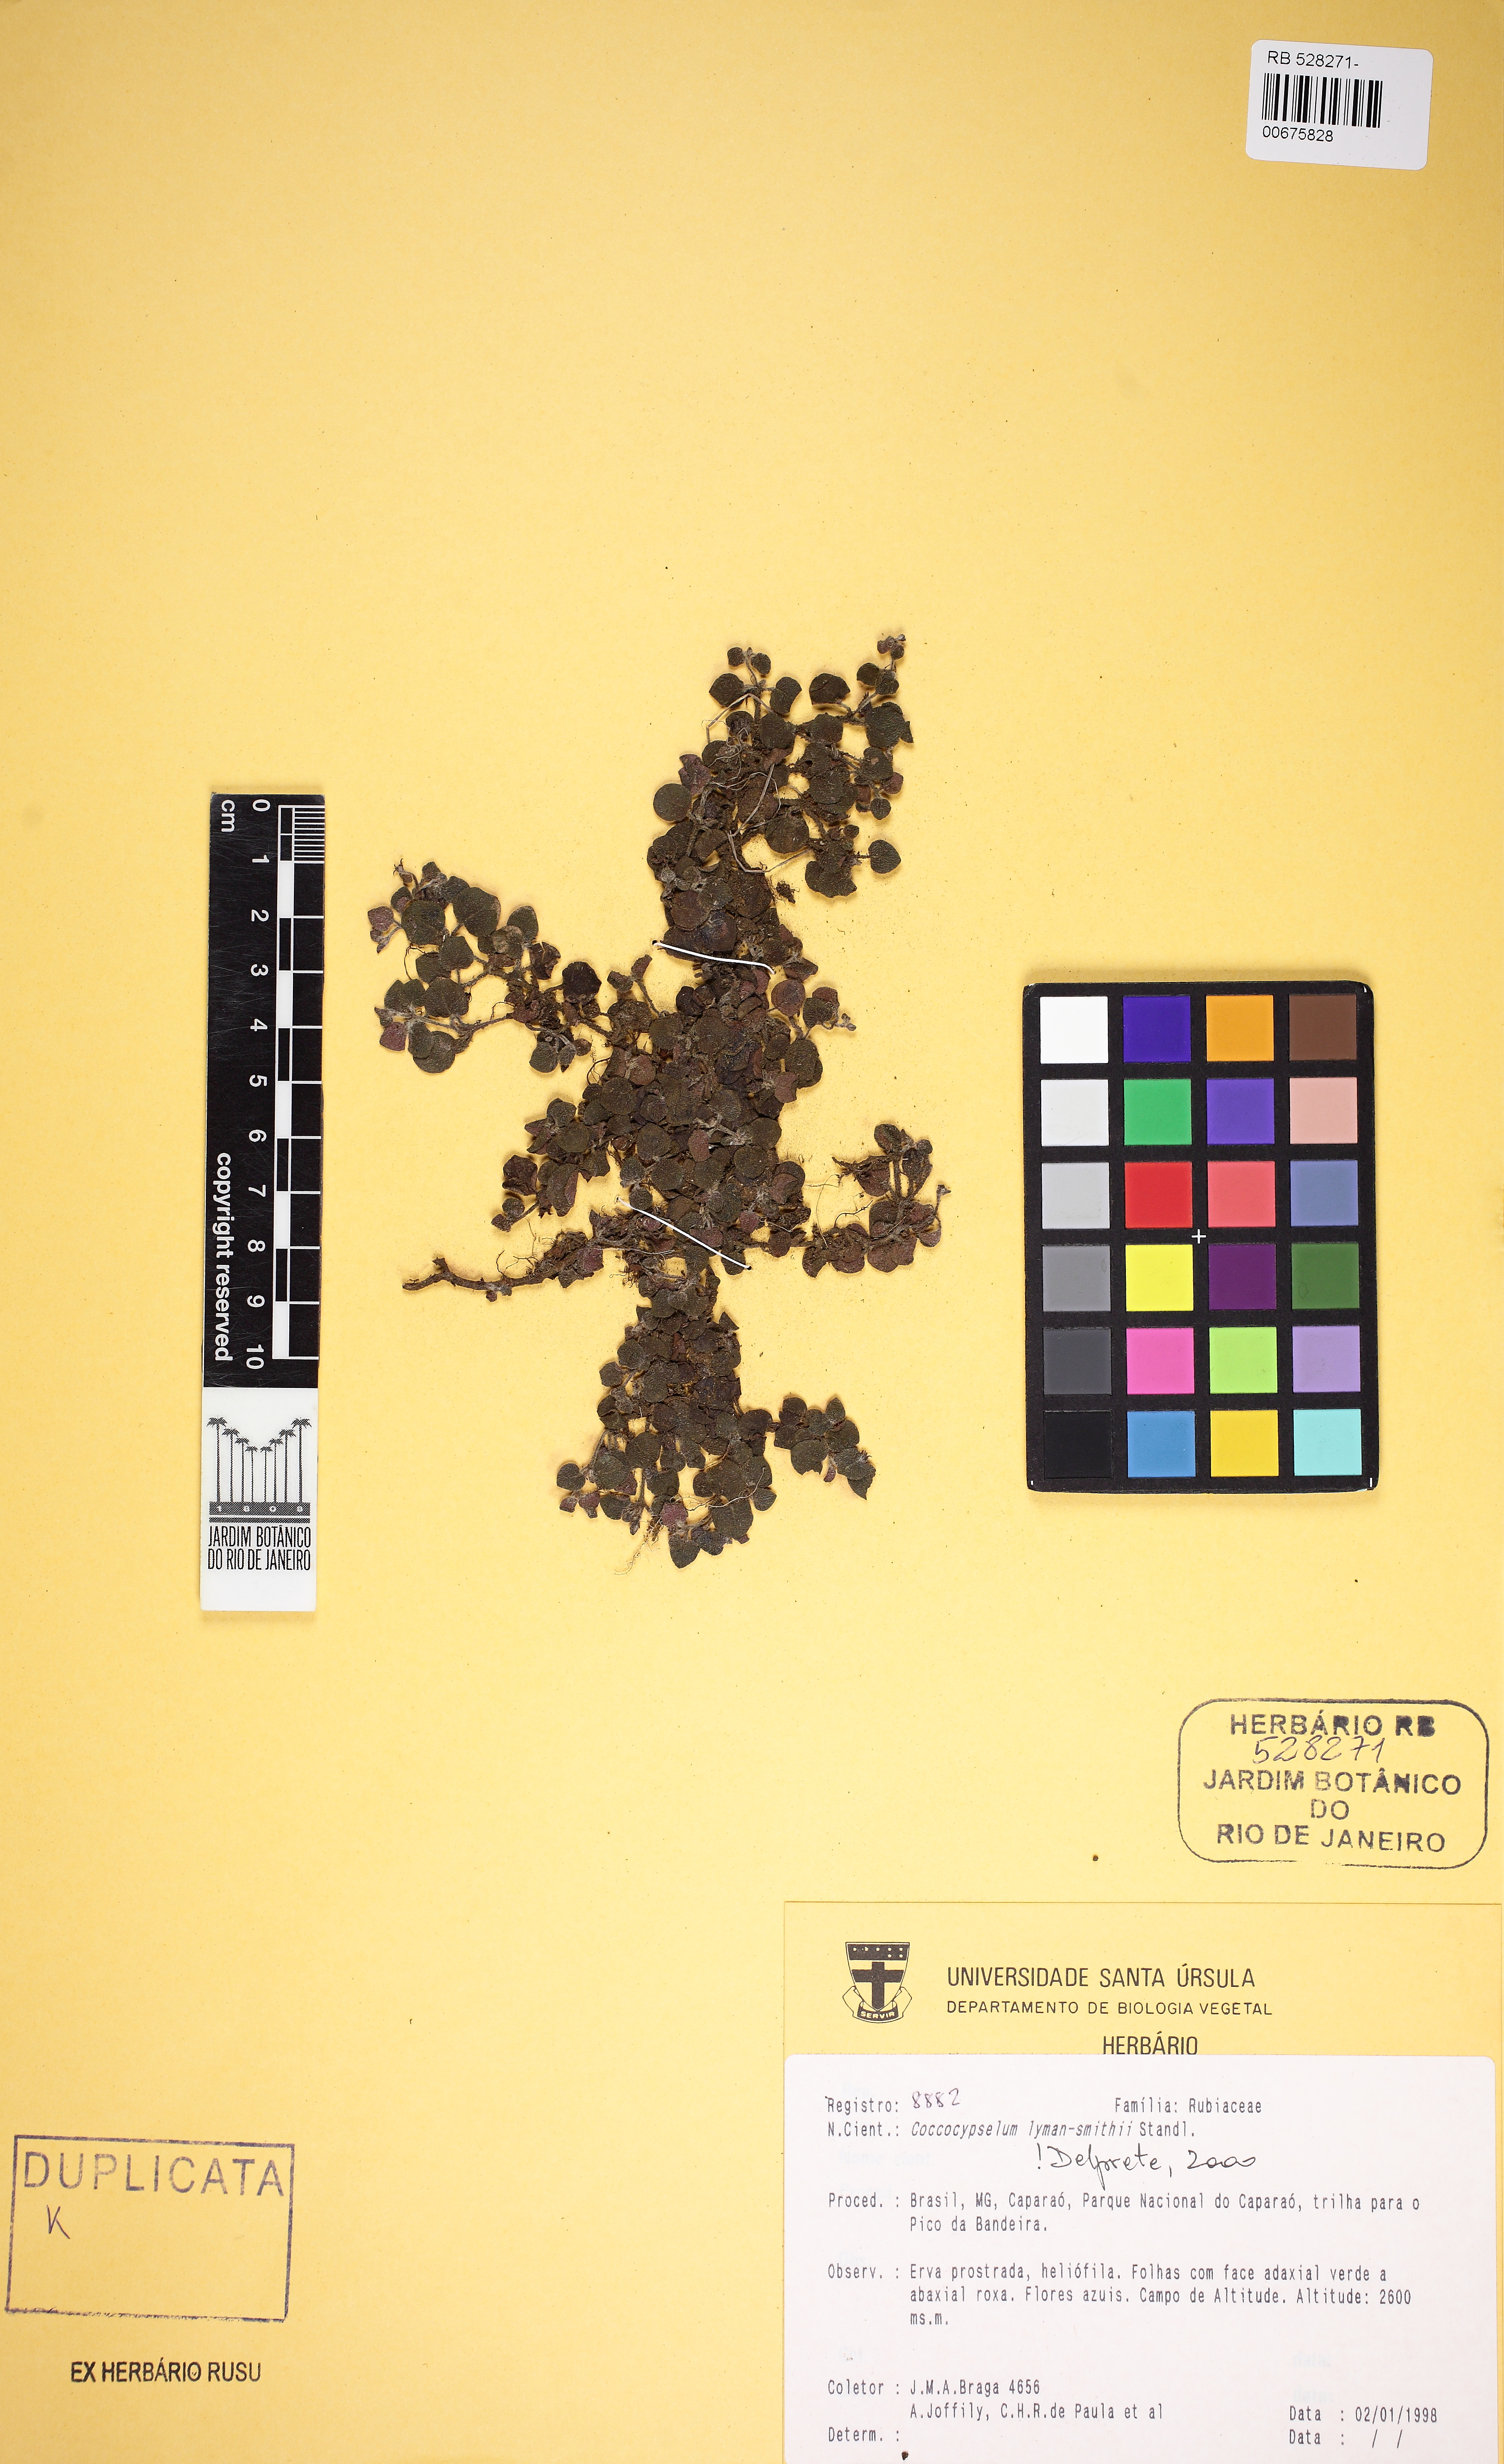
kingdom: Plantae
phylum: Tracheophyta
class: Magnoliopsida
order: Gentianales
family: Rubiaceae
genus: Coccocypselum
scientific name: Coccocypselum lymansmithii
